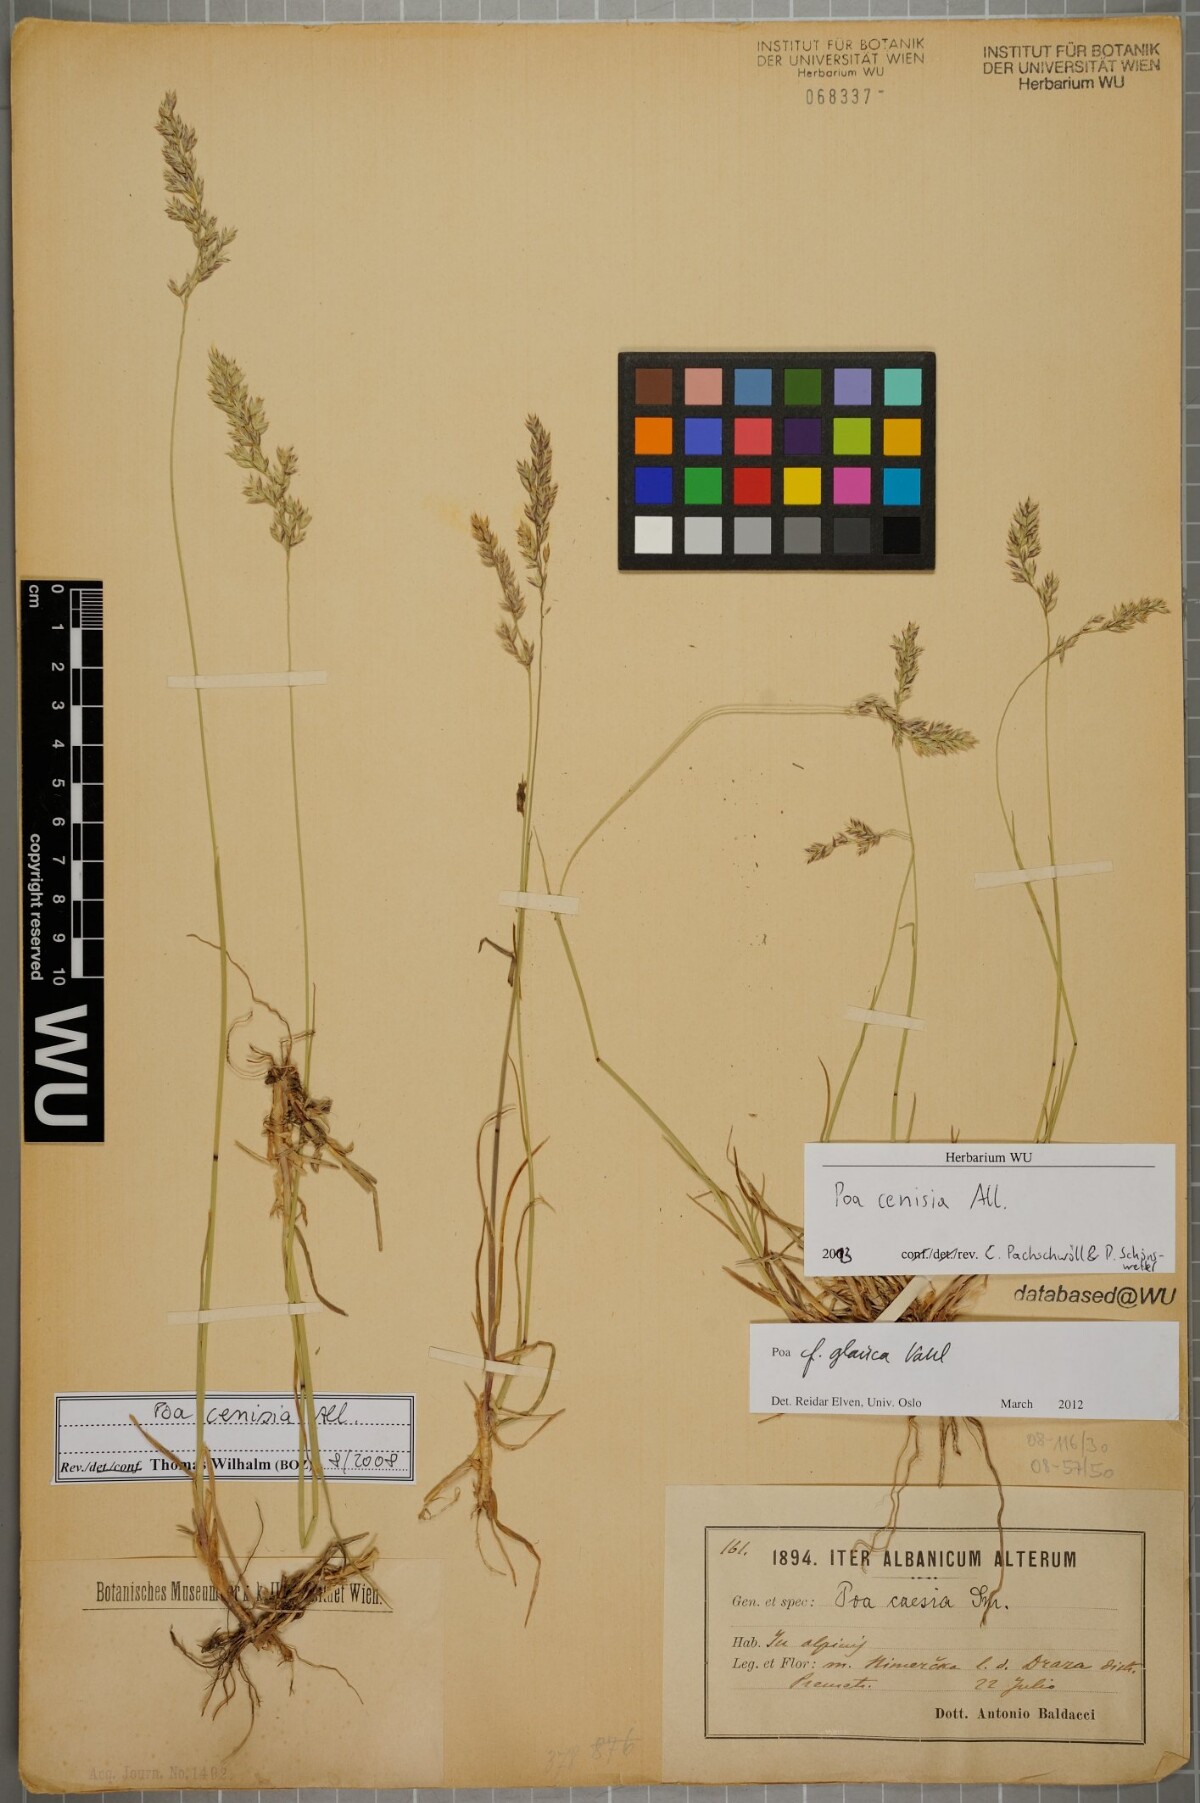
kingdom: Plantae
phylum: Tracheophyta
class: Liliopsida
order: Poales
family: Poaceae
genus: Poa
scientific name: Poa cenisia
